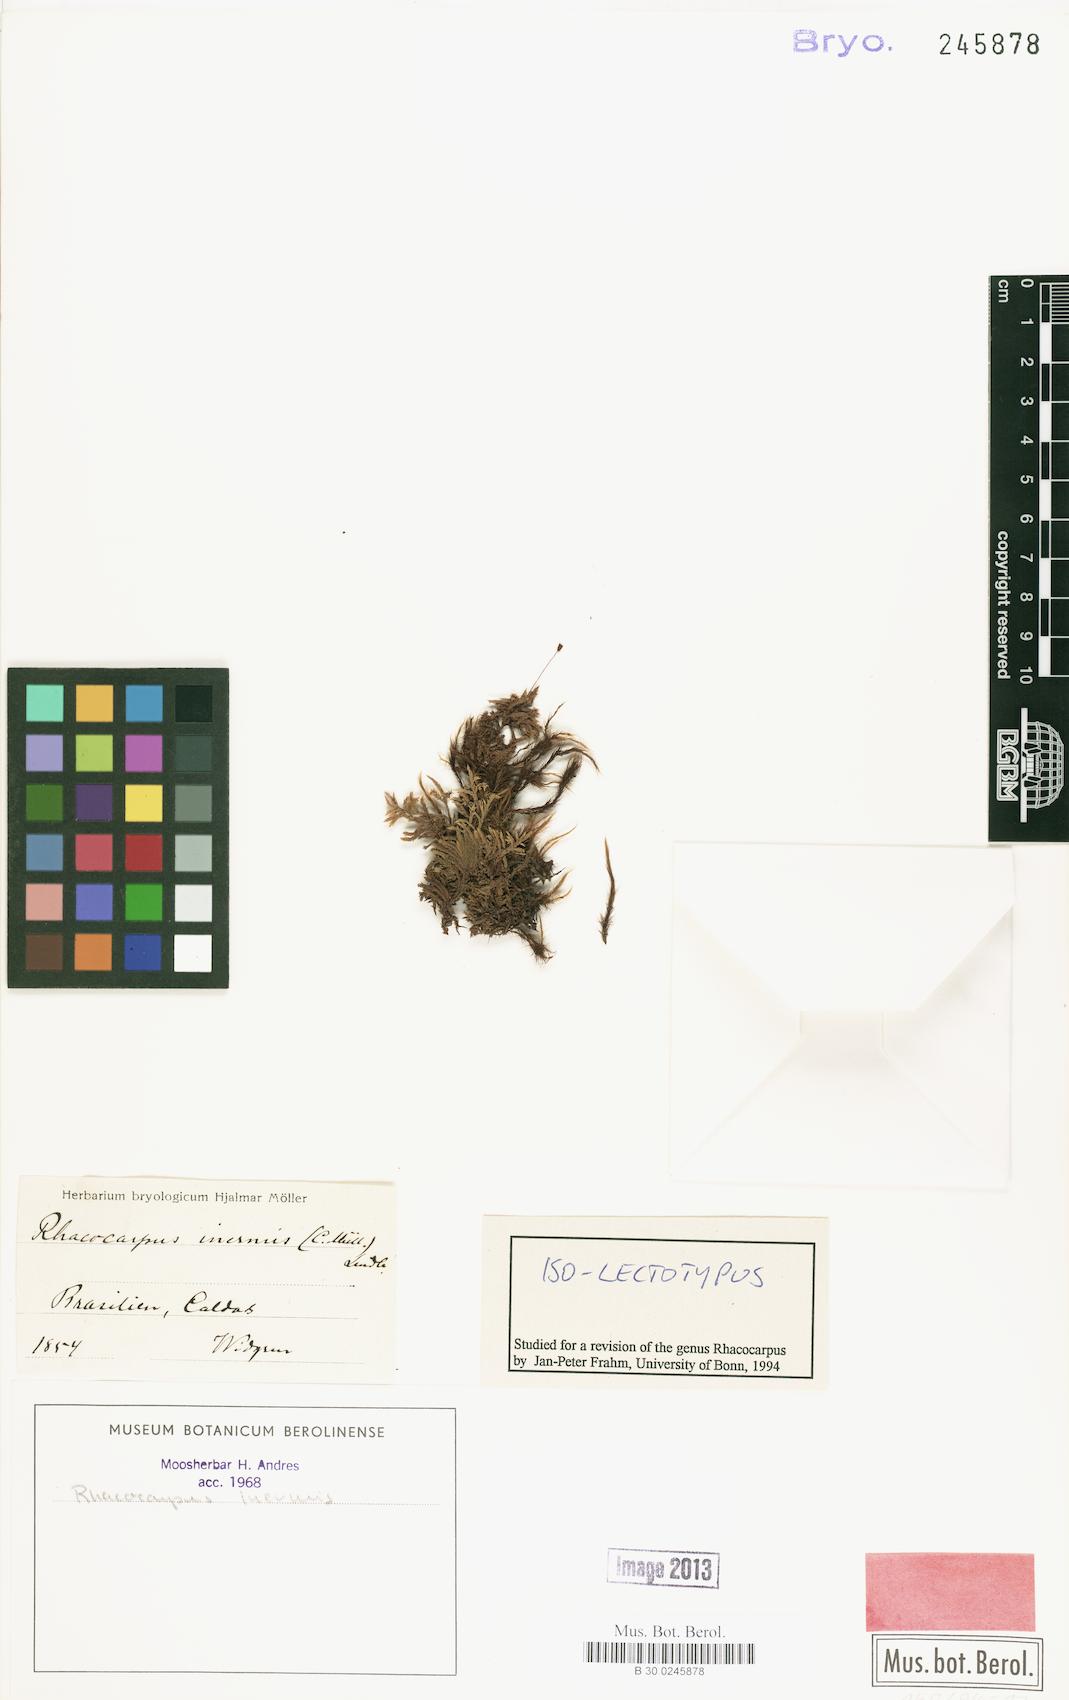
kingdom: Plantae
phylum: Bryophyta
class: Bryopsida
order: Hedwigiales
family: Hedwigiaceae
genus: Rhacocarpus
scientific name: Rhacocarpus inermis
